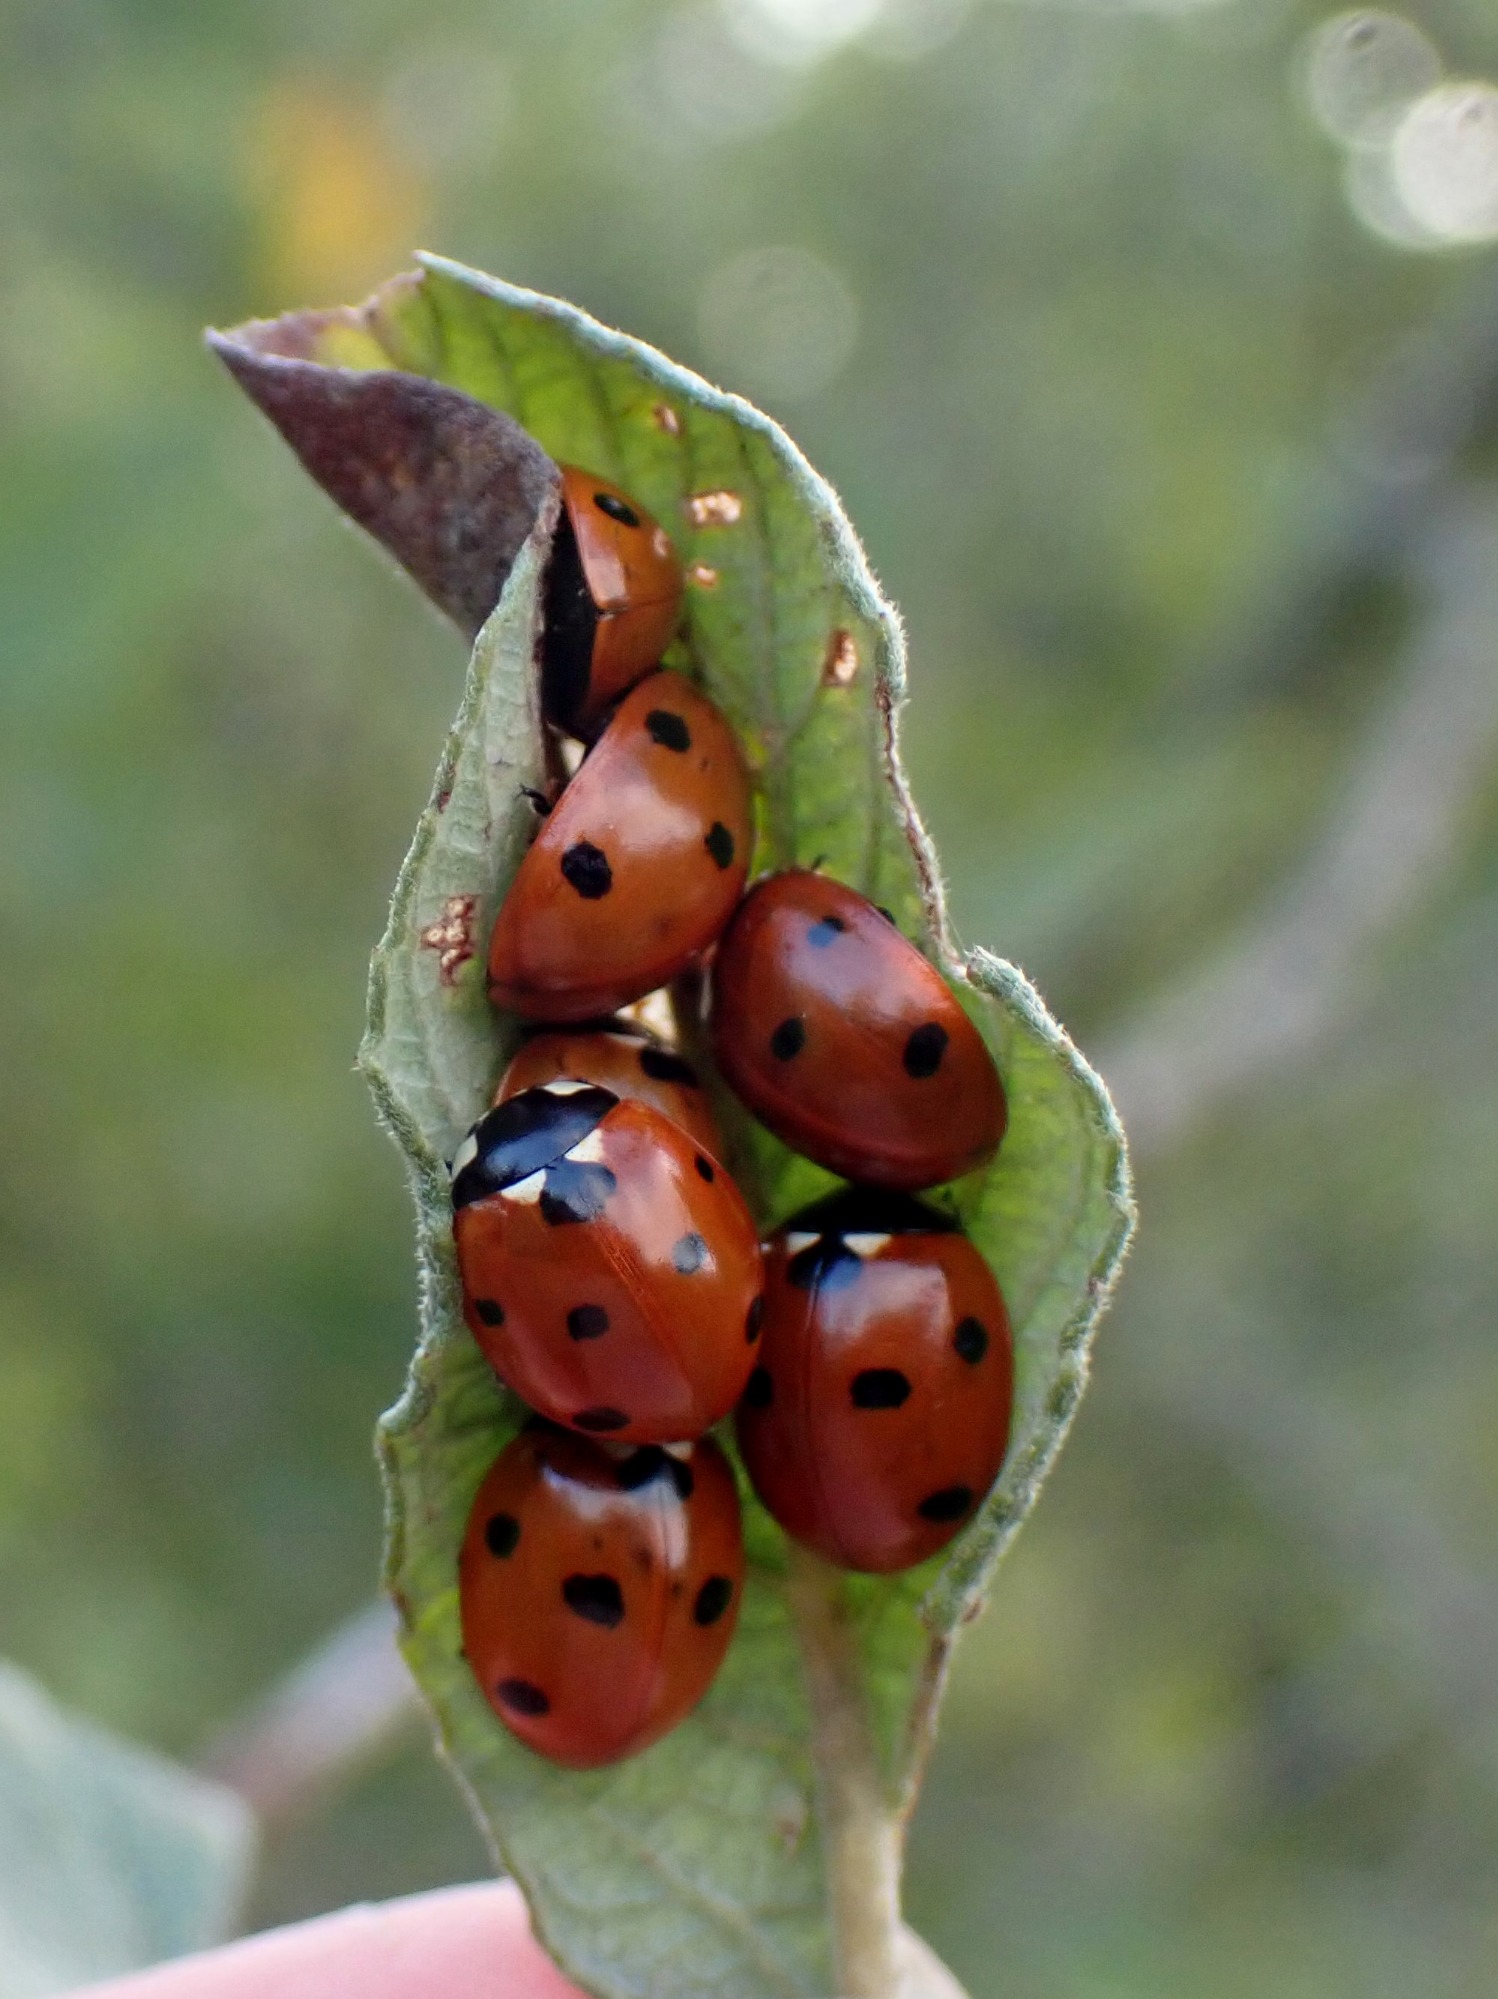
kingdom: Animalia
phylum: Arthropoda
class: Insecta
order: Coleoptera
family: Coccinellidae
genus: Coccinella
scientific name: Coccinella septempunctata
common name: Syvplettet mariehøne
